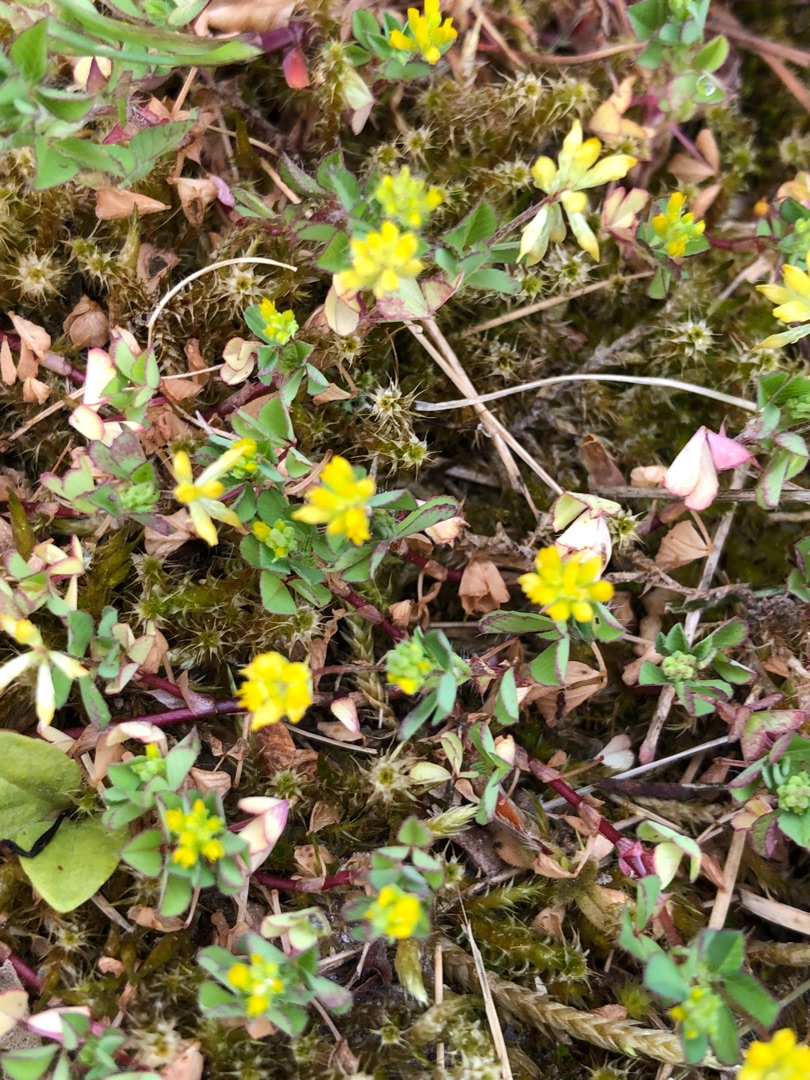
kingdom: Plantae
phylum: Tracheophyta
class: Magnoliopsida
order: Fabales
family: Fabaceae
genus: Trifolium
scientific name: Trifolium dubium
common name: Fin kløver
